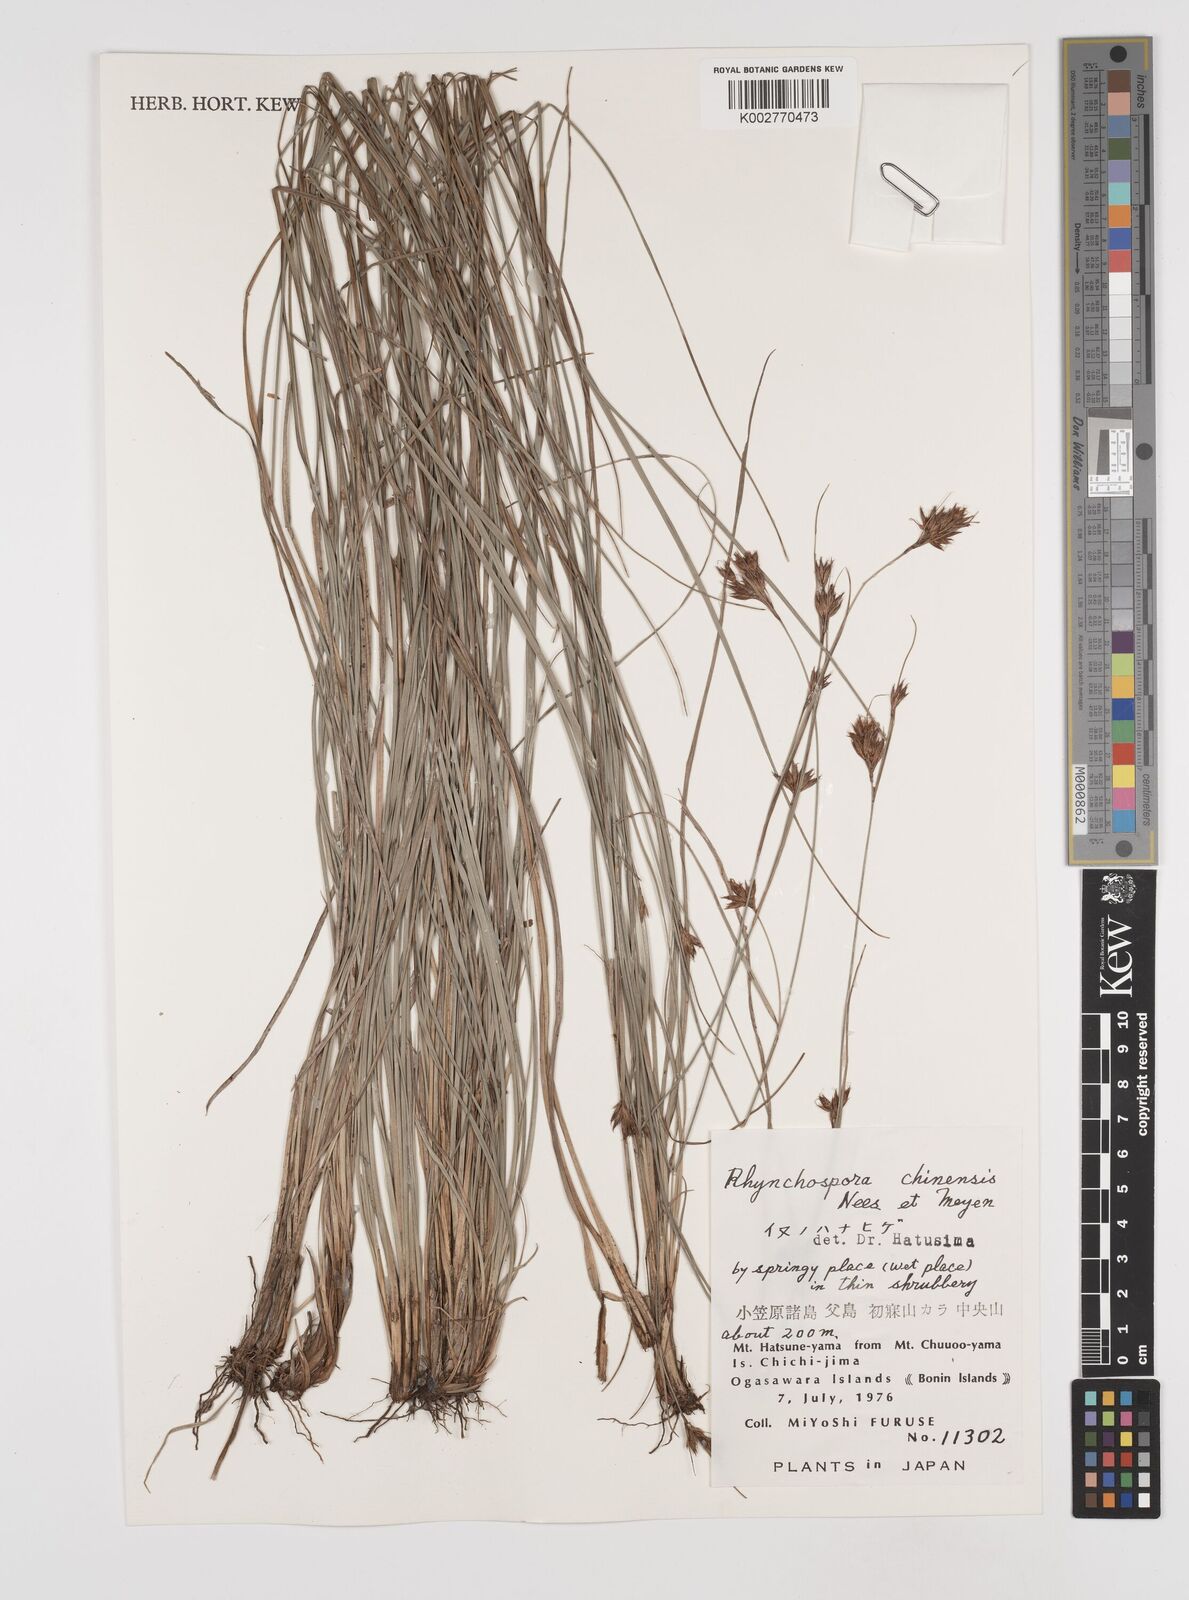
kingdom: Plantae
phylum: Tracheophyta
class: Liliopsida
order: Poales
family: Cyperaceae
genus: Rhynchospora
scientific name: Rhynchospora chinensis
